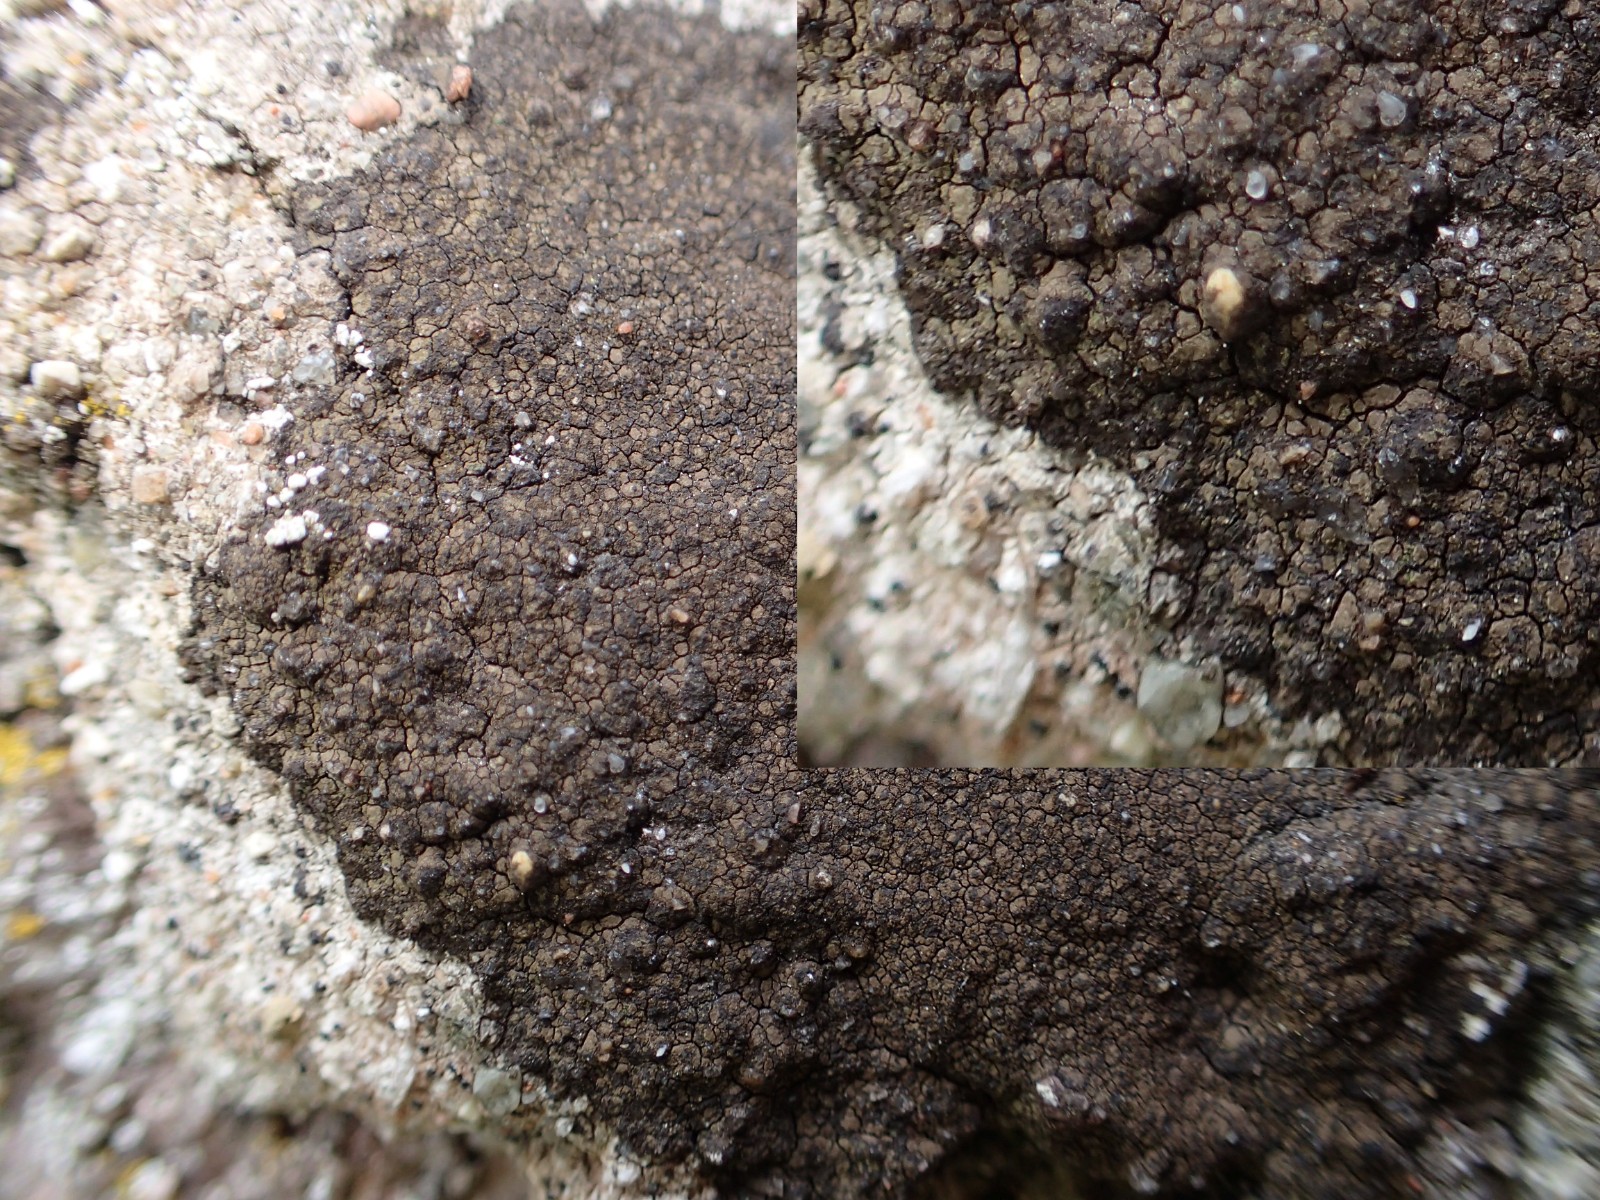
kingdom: Fungi
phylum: Ascomycota
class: Eurotiomycetes
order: Verrucariales
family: Verrucariaceae
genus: Verrucaria
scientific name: Verrucaria nigrescens
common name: sortbrun vortelav
